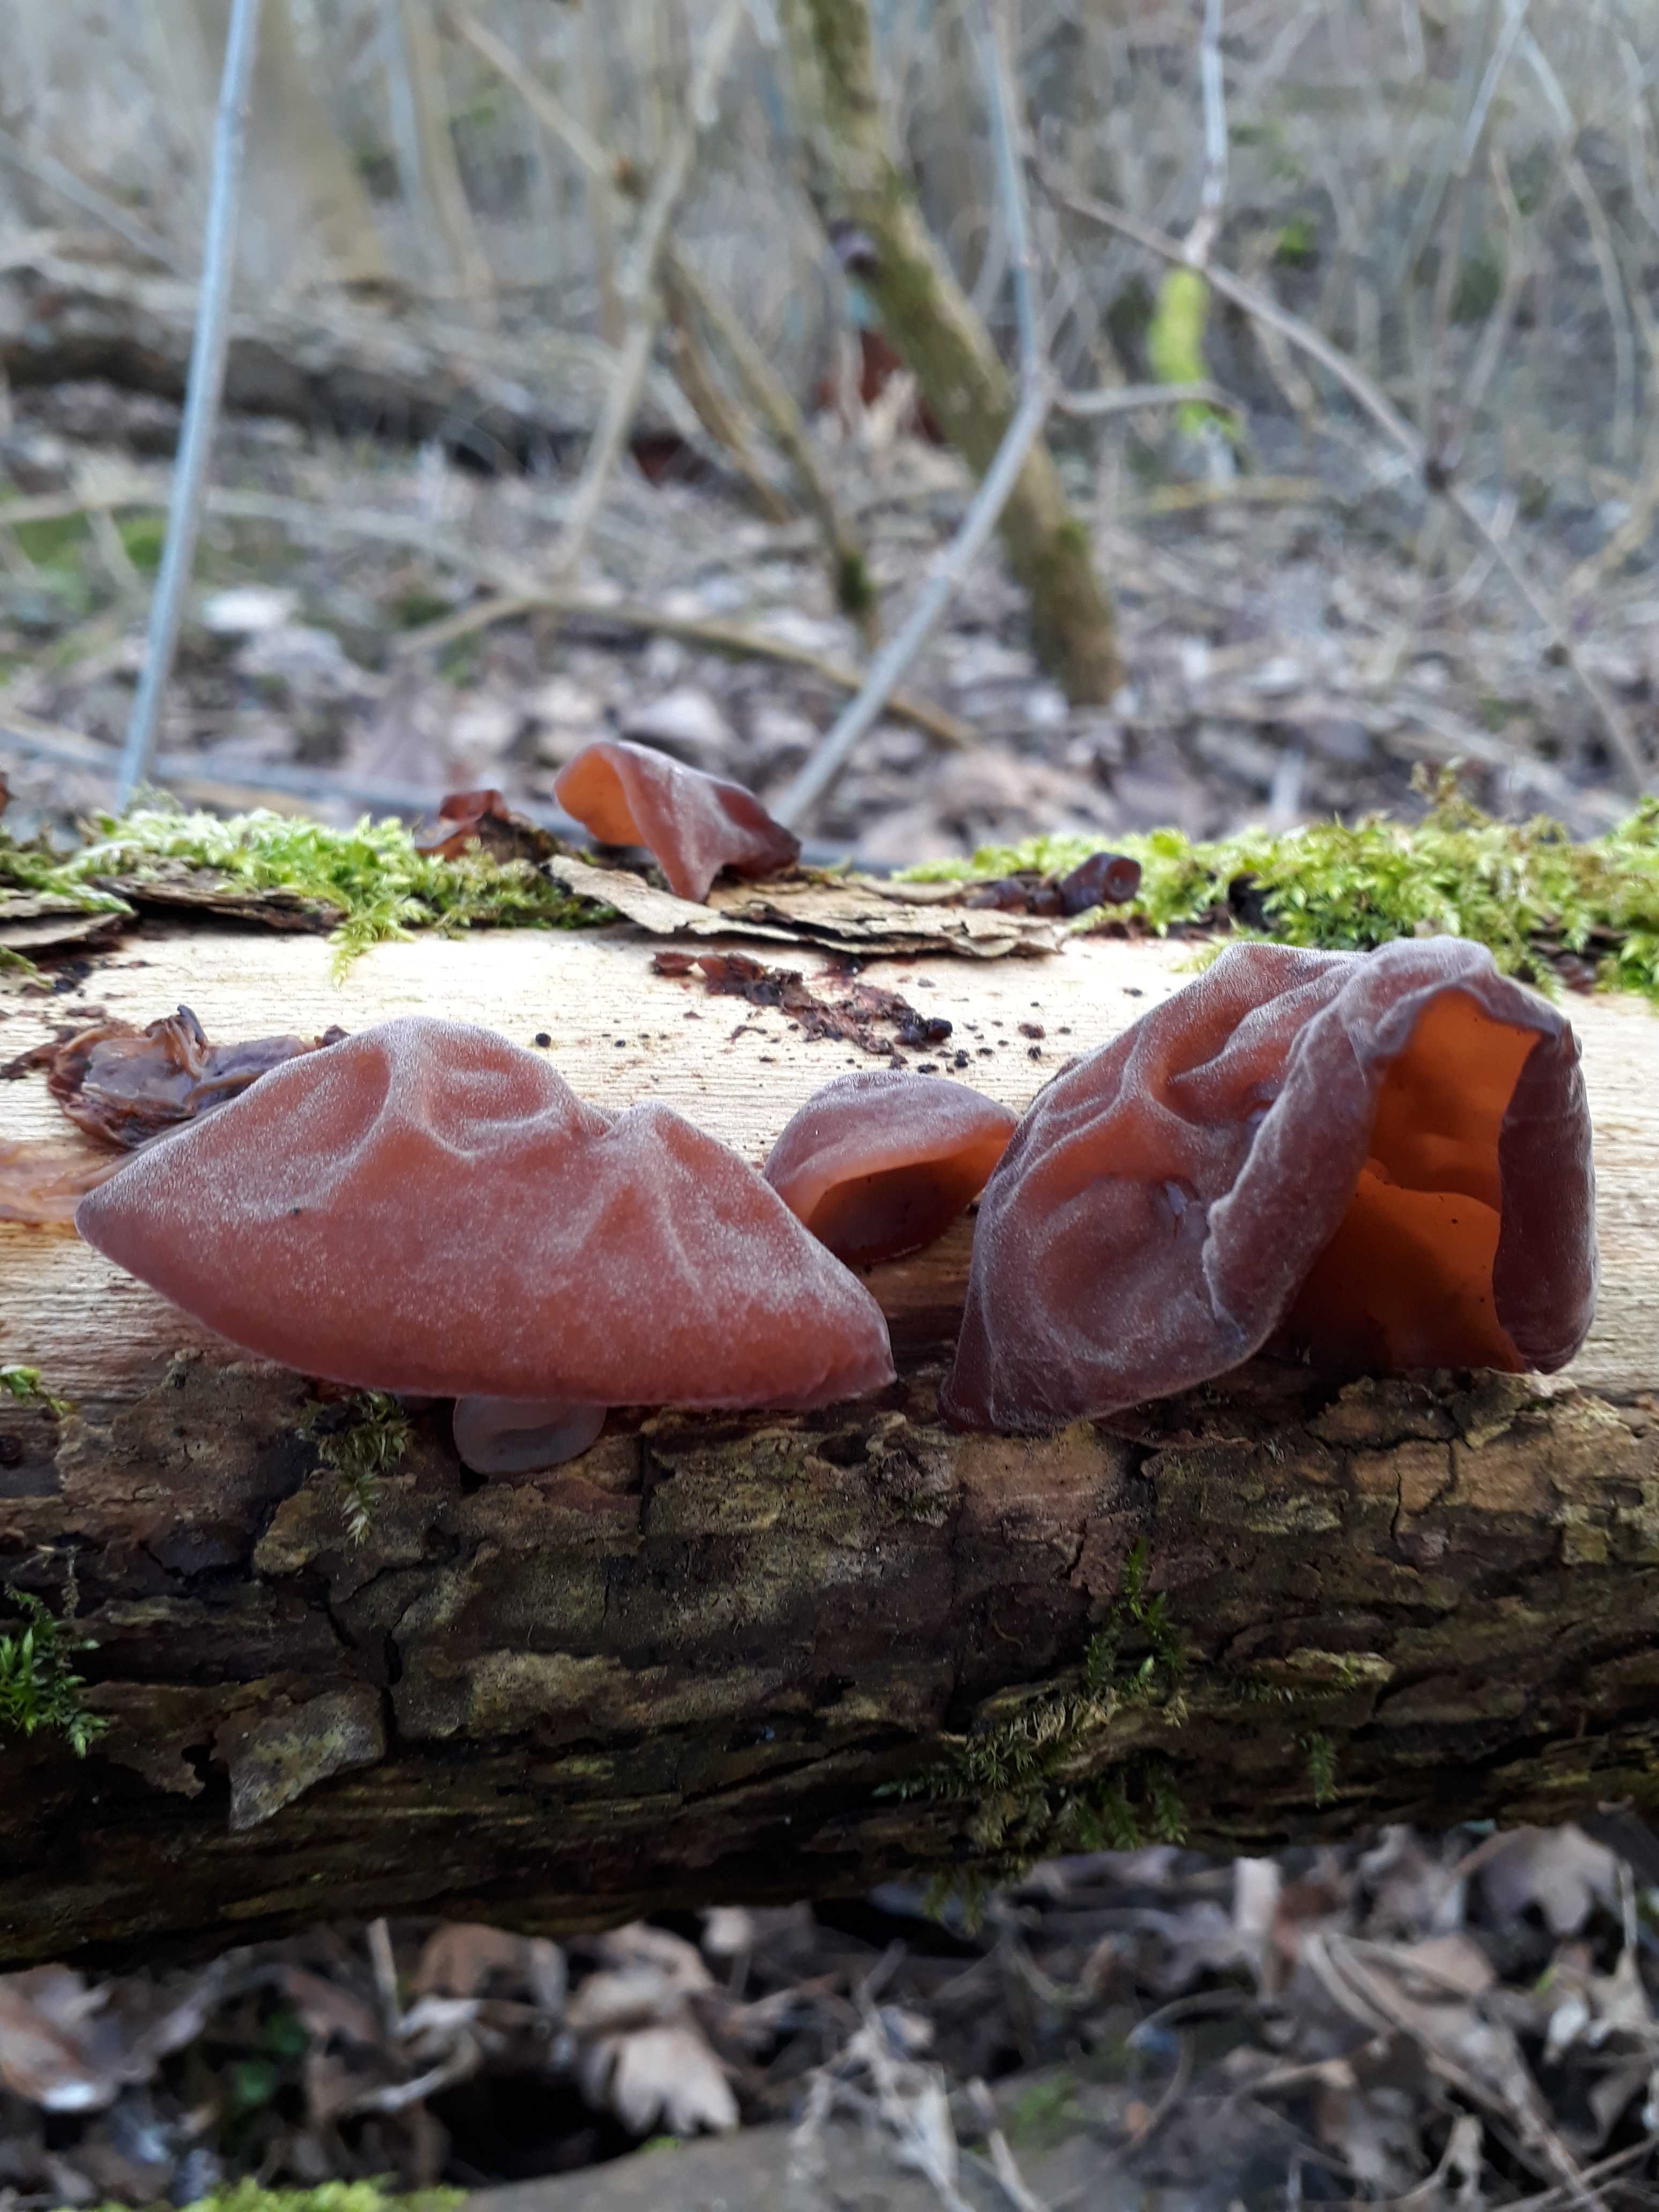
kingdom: Fungi
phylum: Basidiomycota
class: Agaricomycetes
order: Auriculariales
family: Auriculariaceae
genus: Auricularia
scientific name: Auricularia auricula-judae
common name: almindelig judasøre
